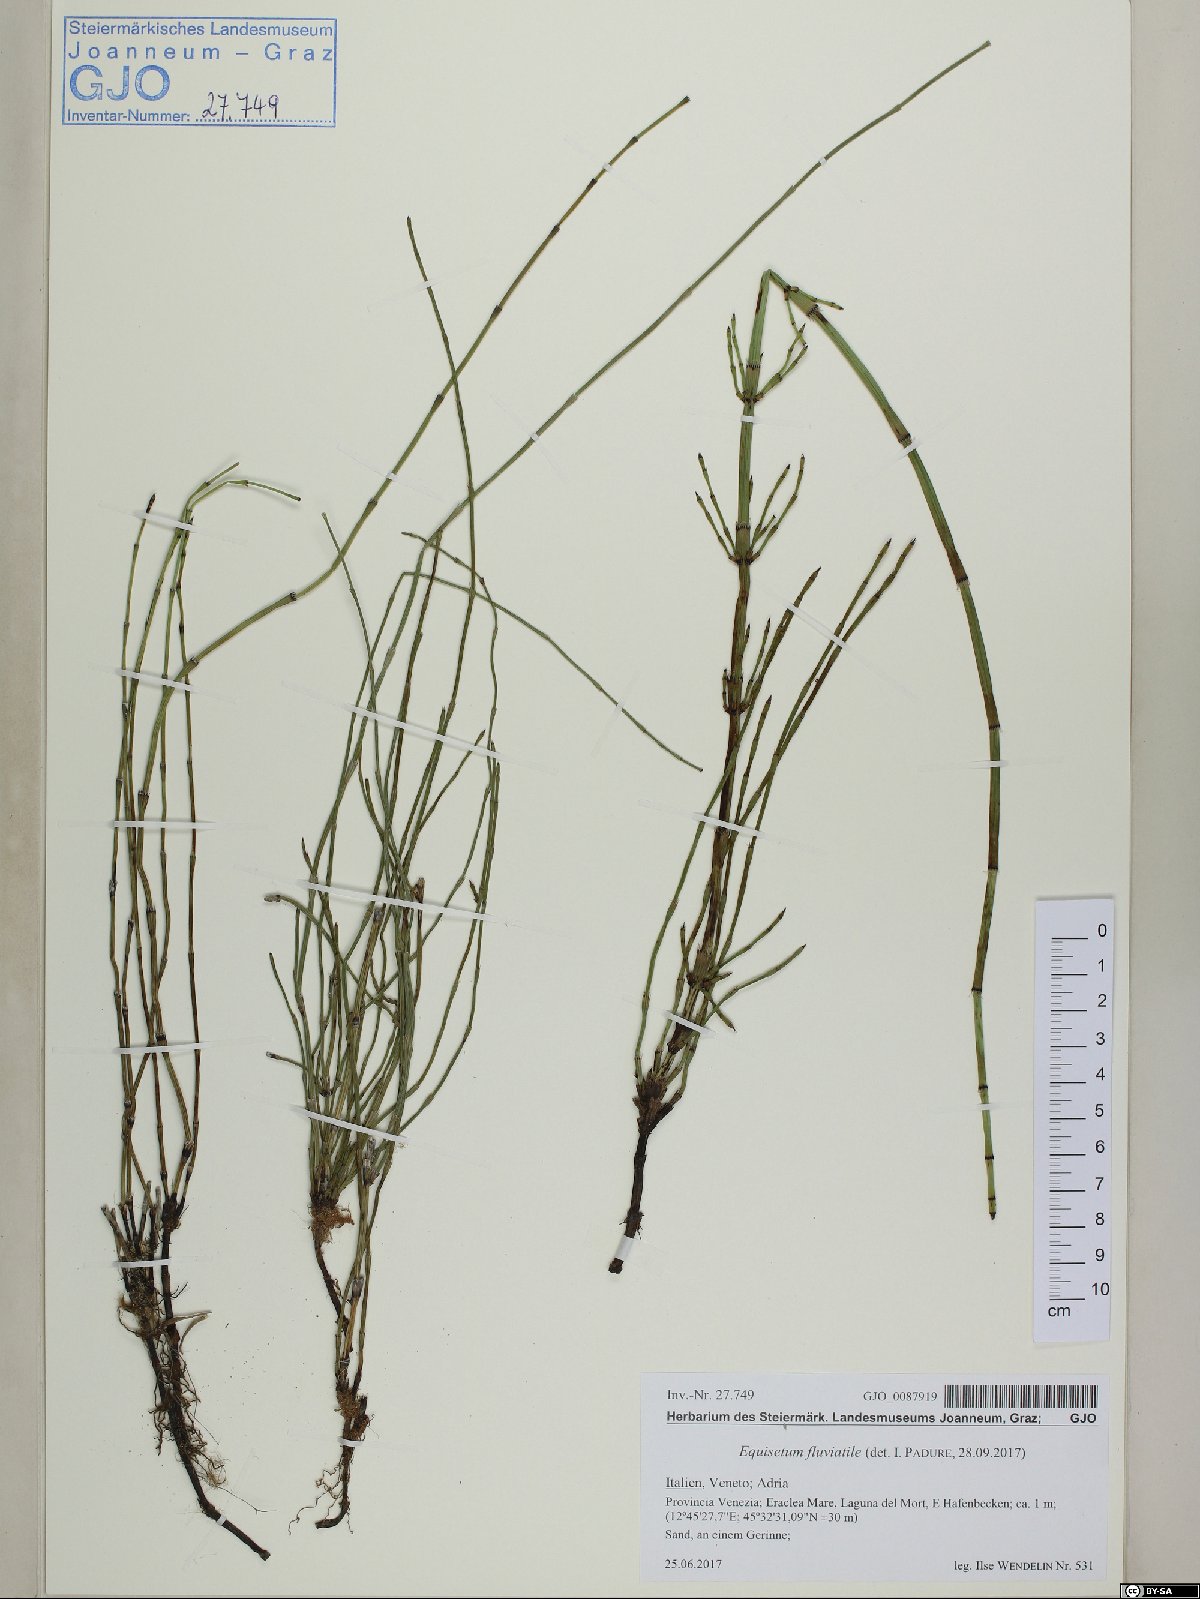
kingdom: Plantae
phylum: Tracheophyta
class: Polypodiopsida
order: Equisetales
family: Equisetaceae
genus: Equisetum
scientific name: Equisetum fluviatile
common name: Water horsetail
